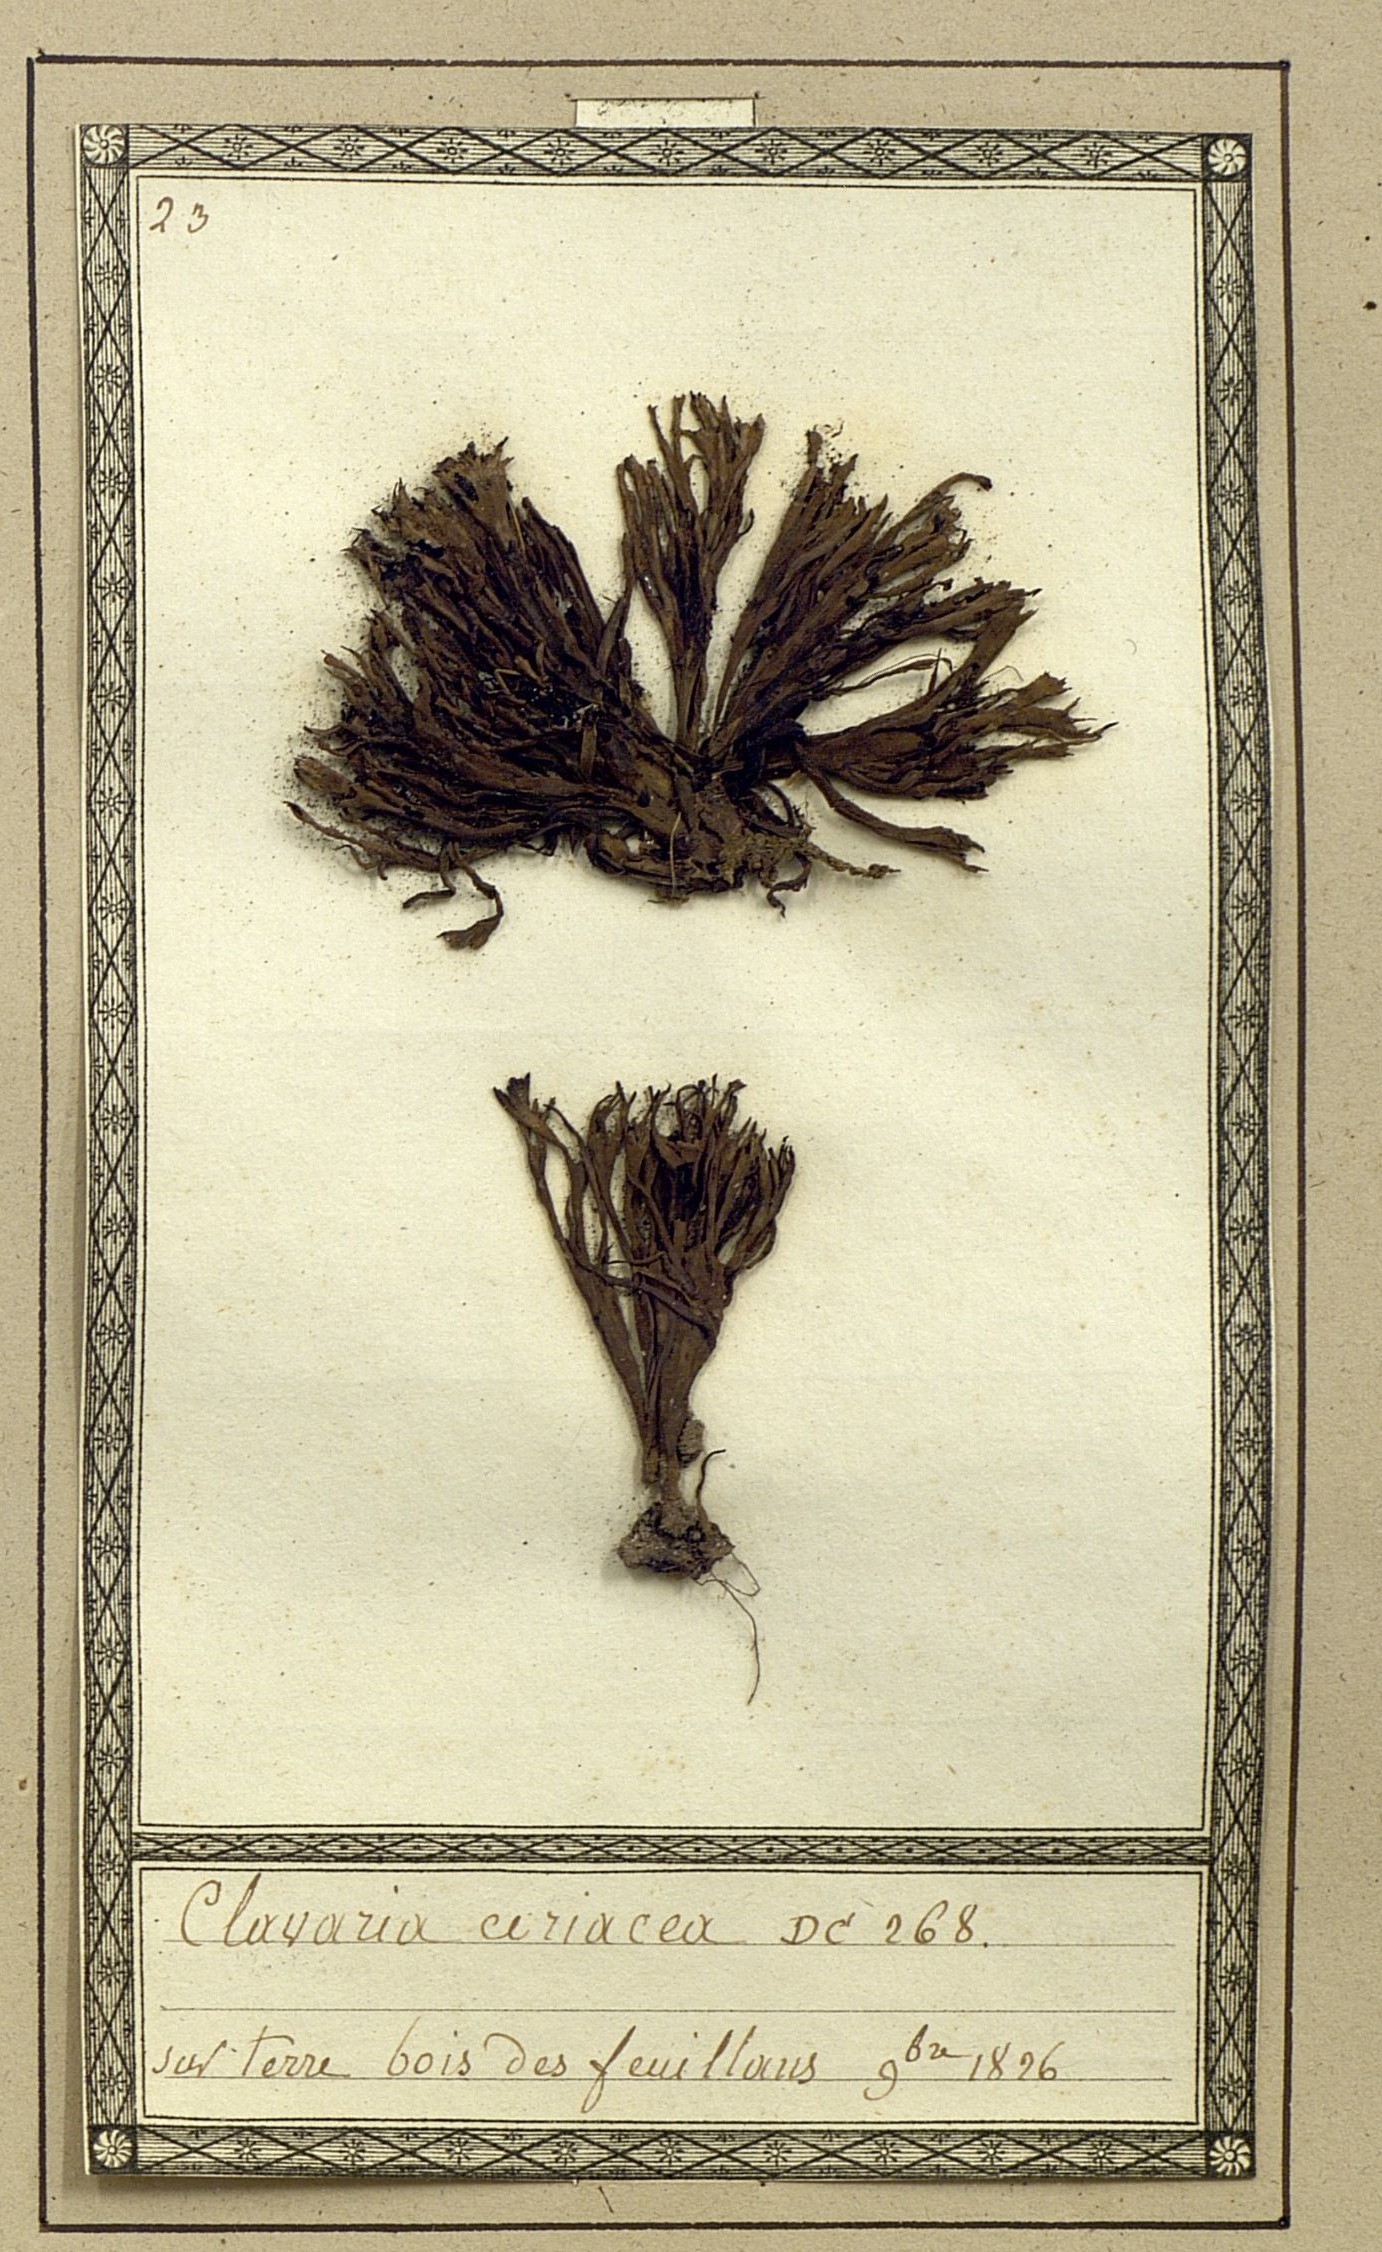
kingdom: Fungi
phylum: Basidiomycota
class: Agaricomycetes
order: Agaricales
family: Clavariaceae
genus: Clavaria
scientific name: Clavaria coriacea
